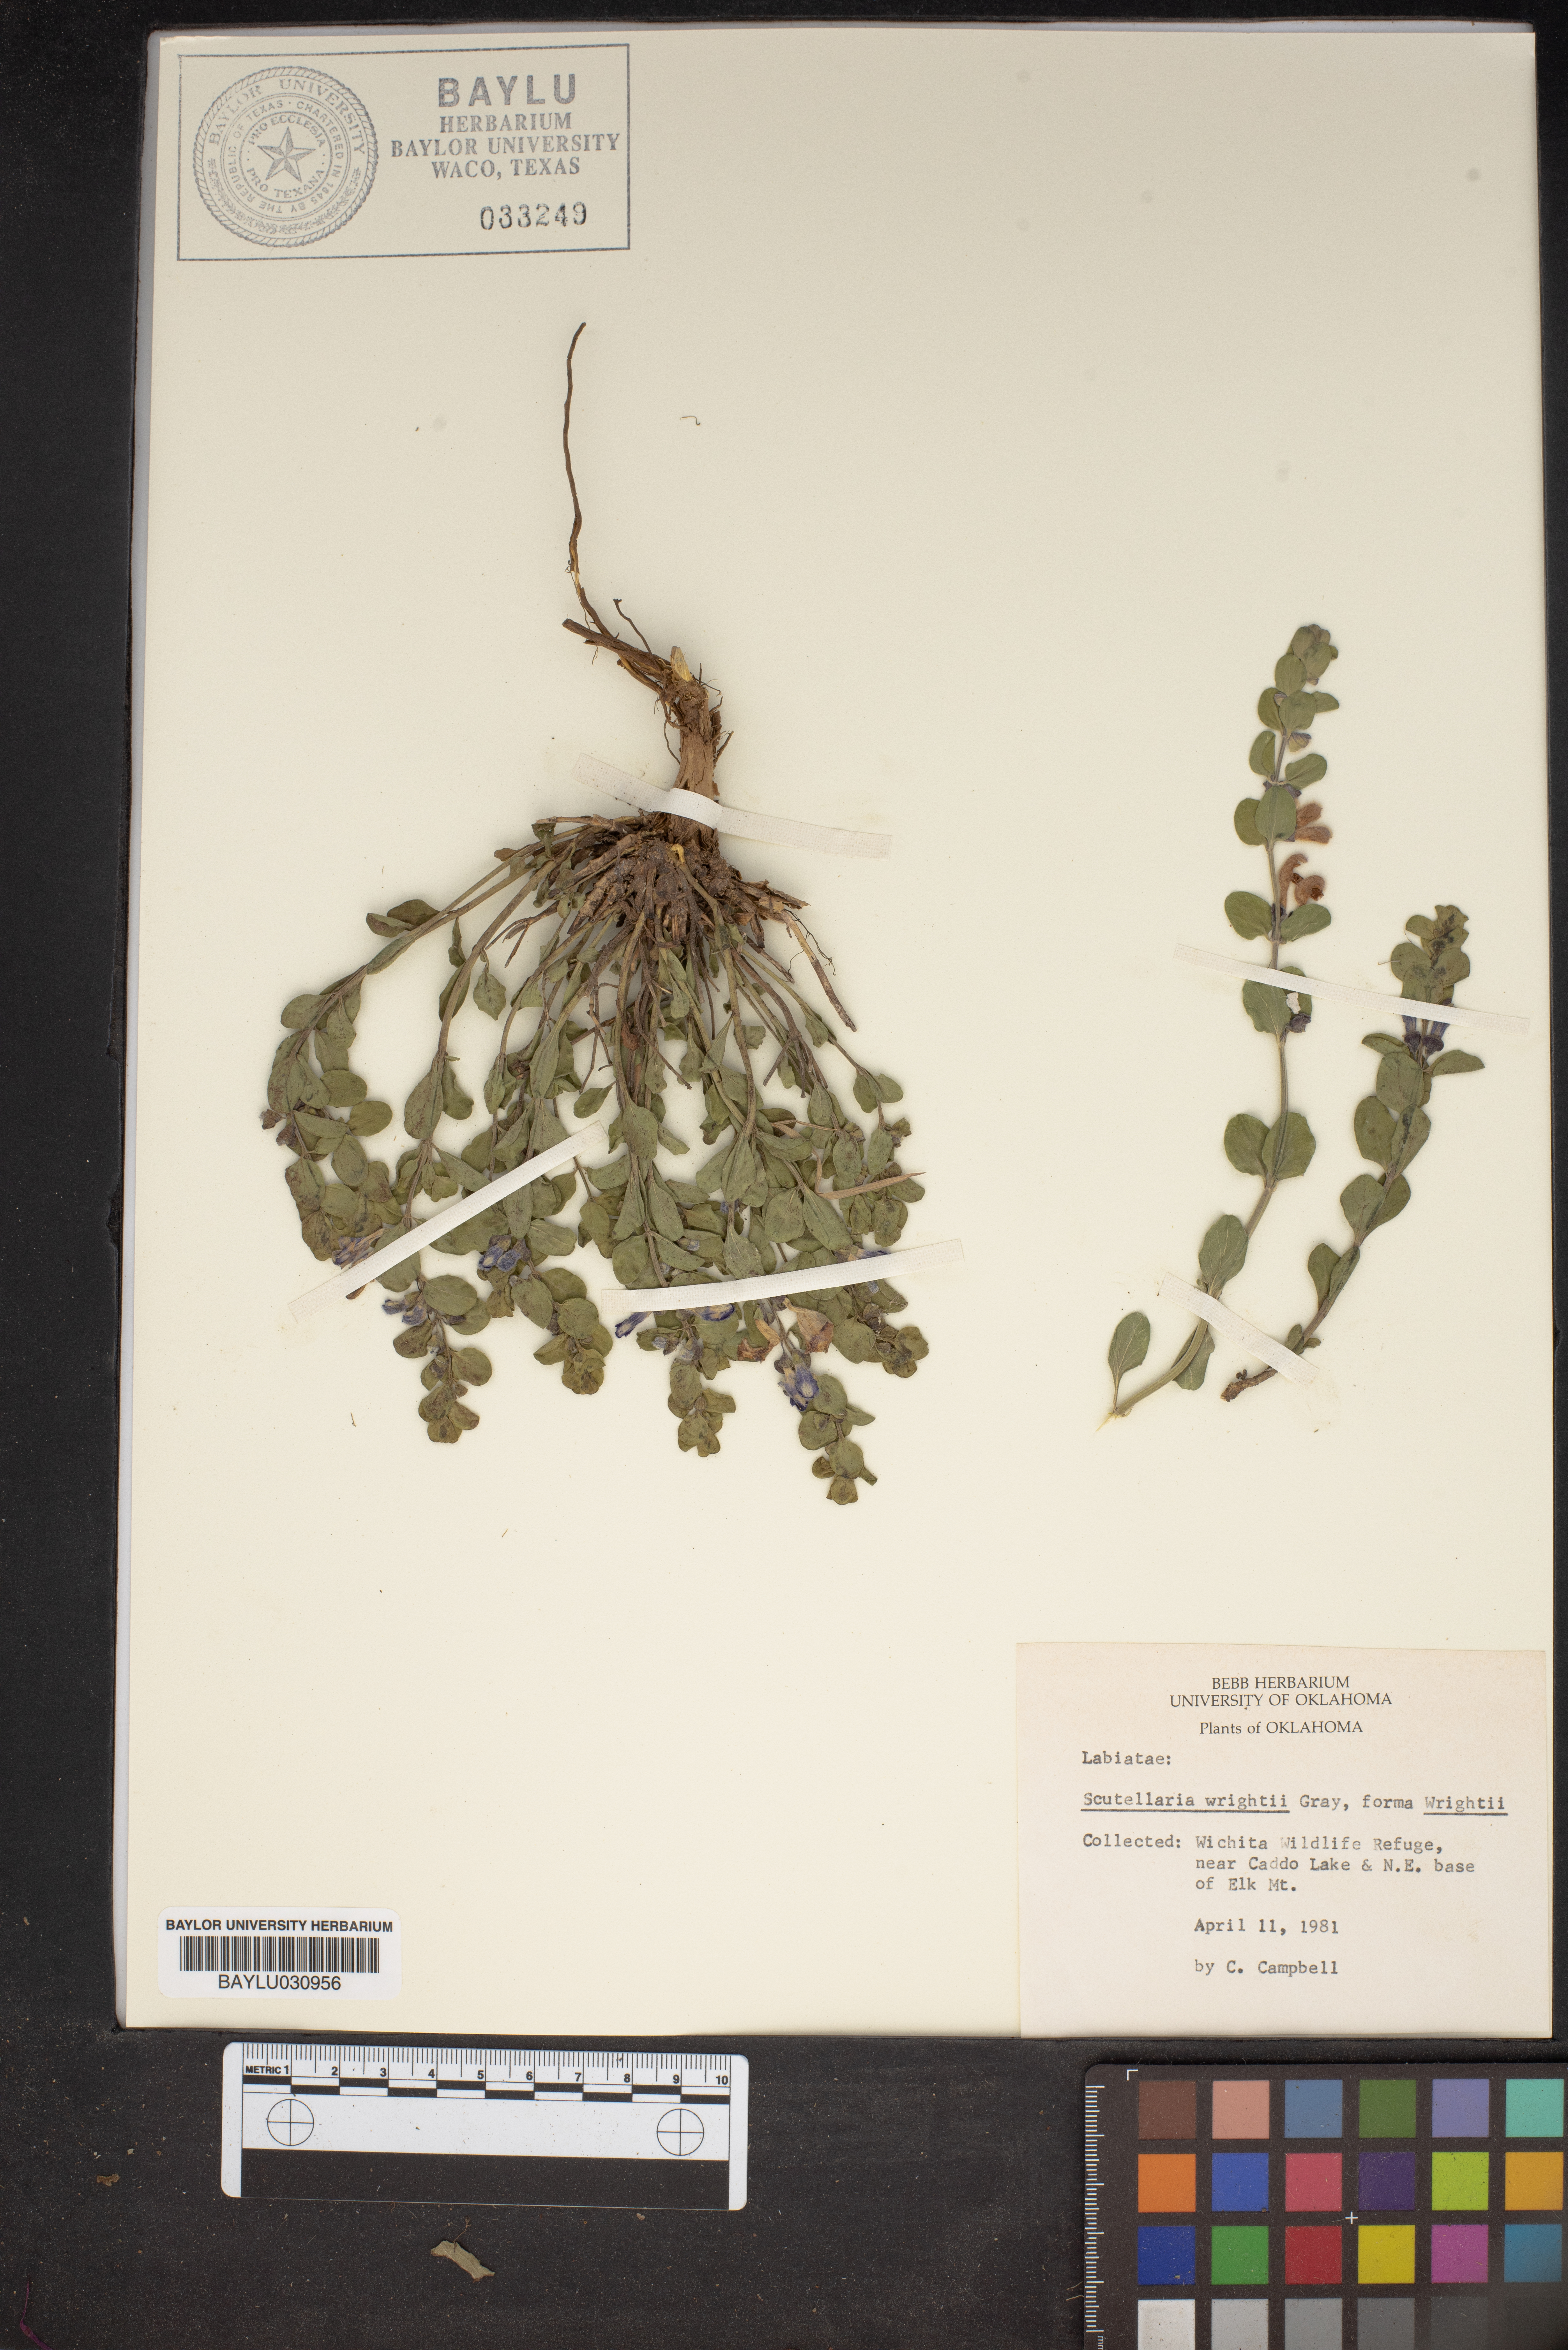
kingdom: Plantae
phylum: Tracheophyta
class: Magnoliopsida
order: Lamiales
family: Lamiaceae
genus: Scutellaria
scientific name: Scutellaria wrightii
